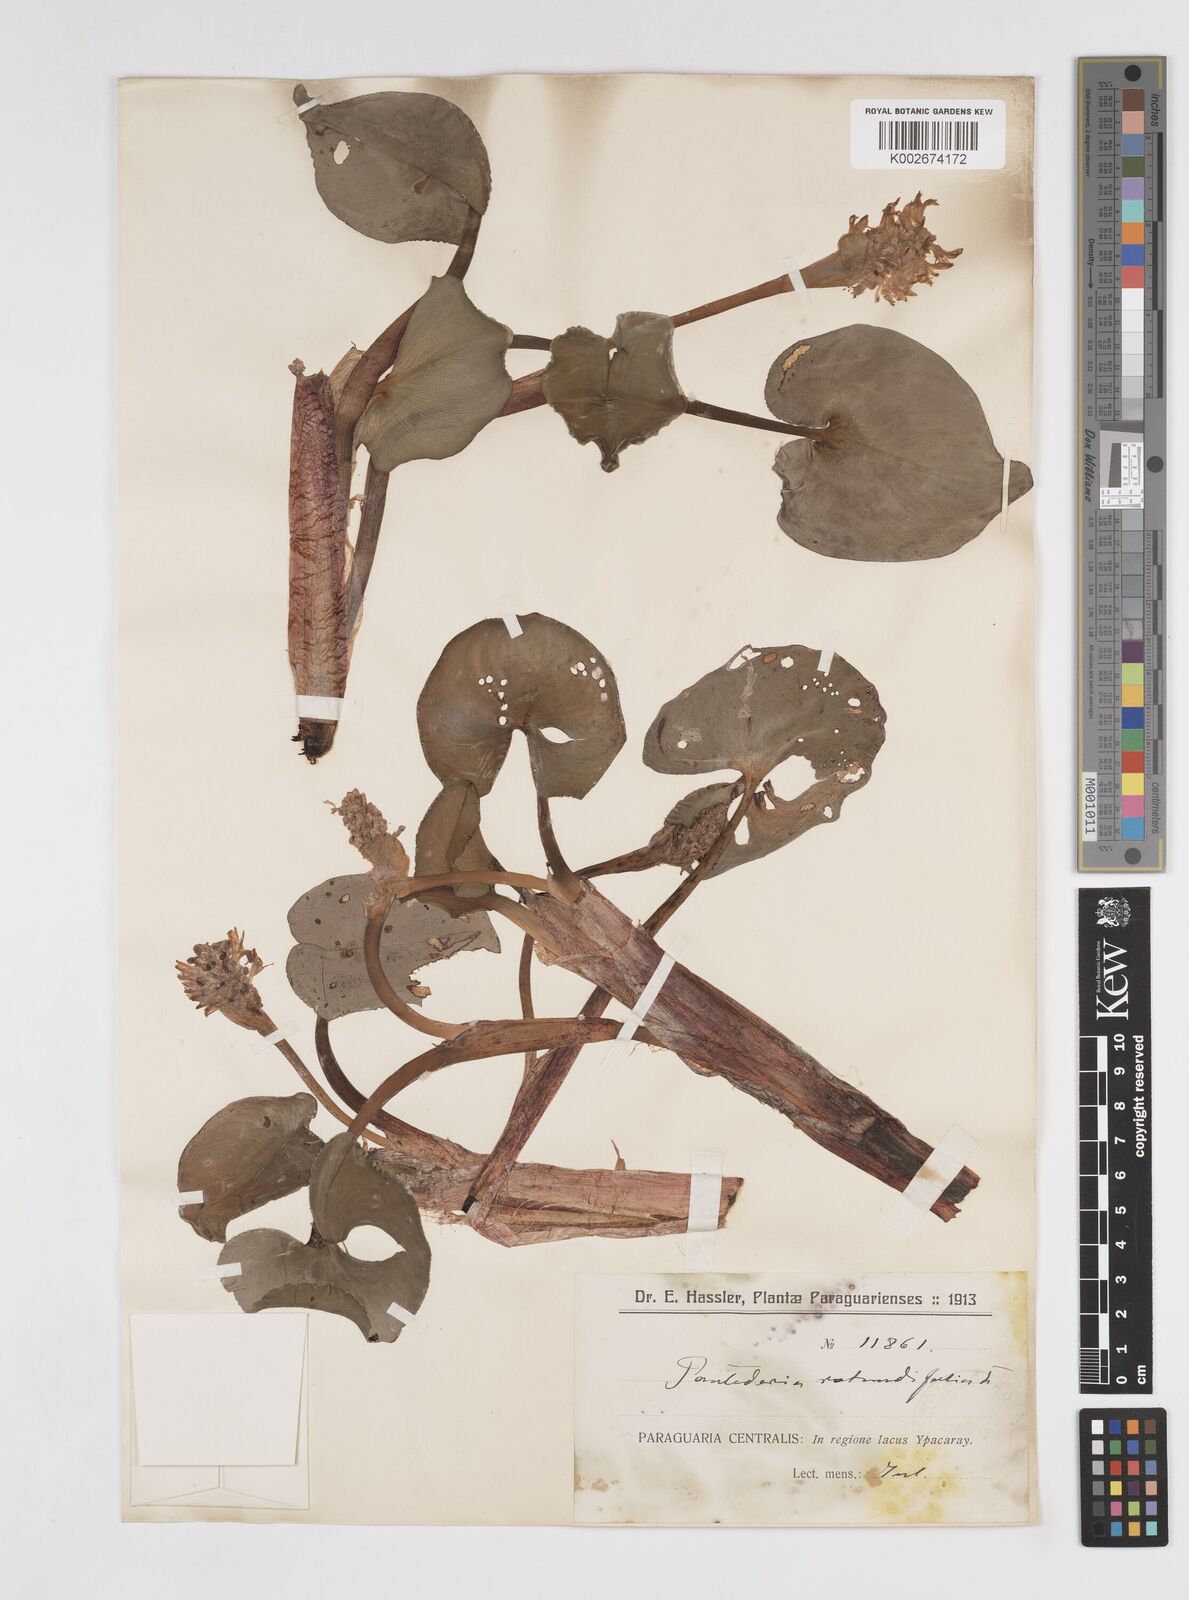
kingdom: Plantae
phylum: Tracheophyta
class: Liliopsida
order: Commelinales
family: Pontederiaceae
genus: Pontederia
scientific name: Pontederia rotundifolia
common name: Tropical pickerel-weed
